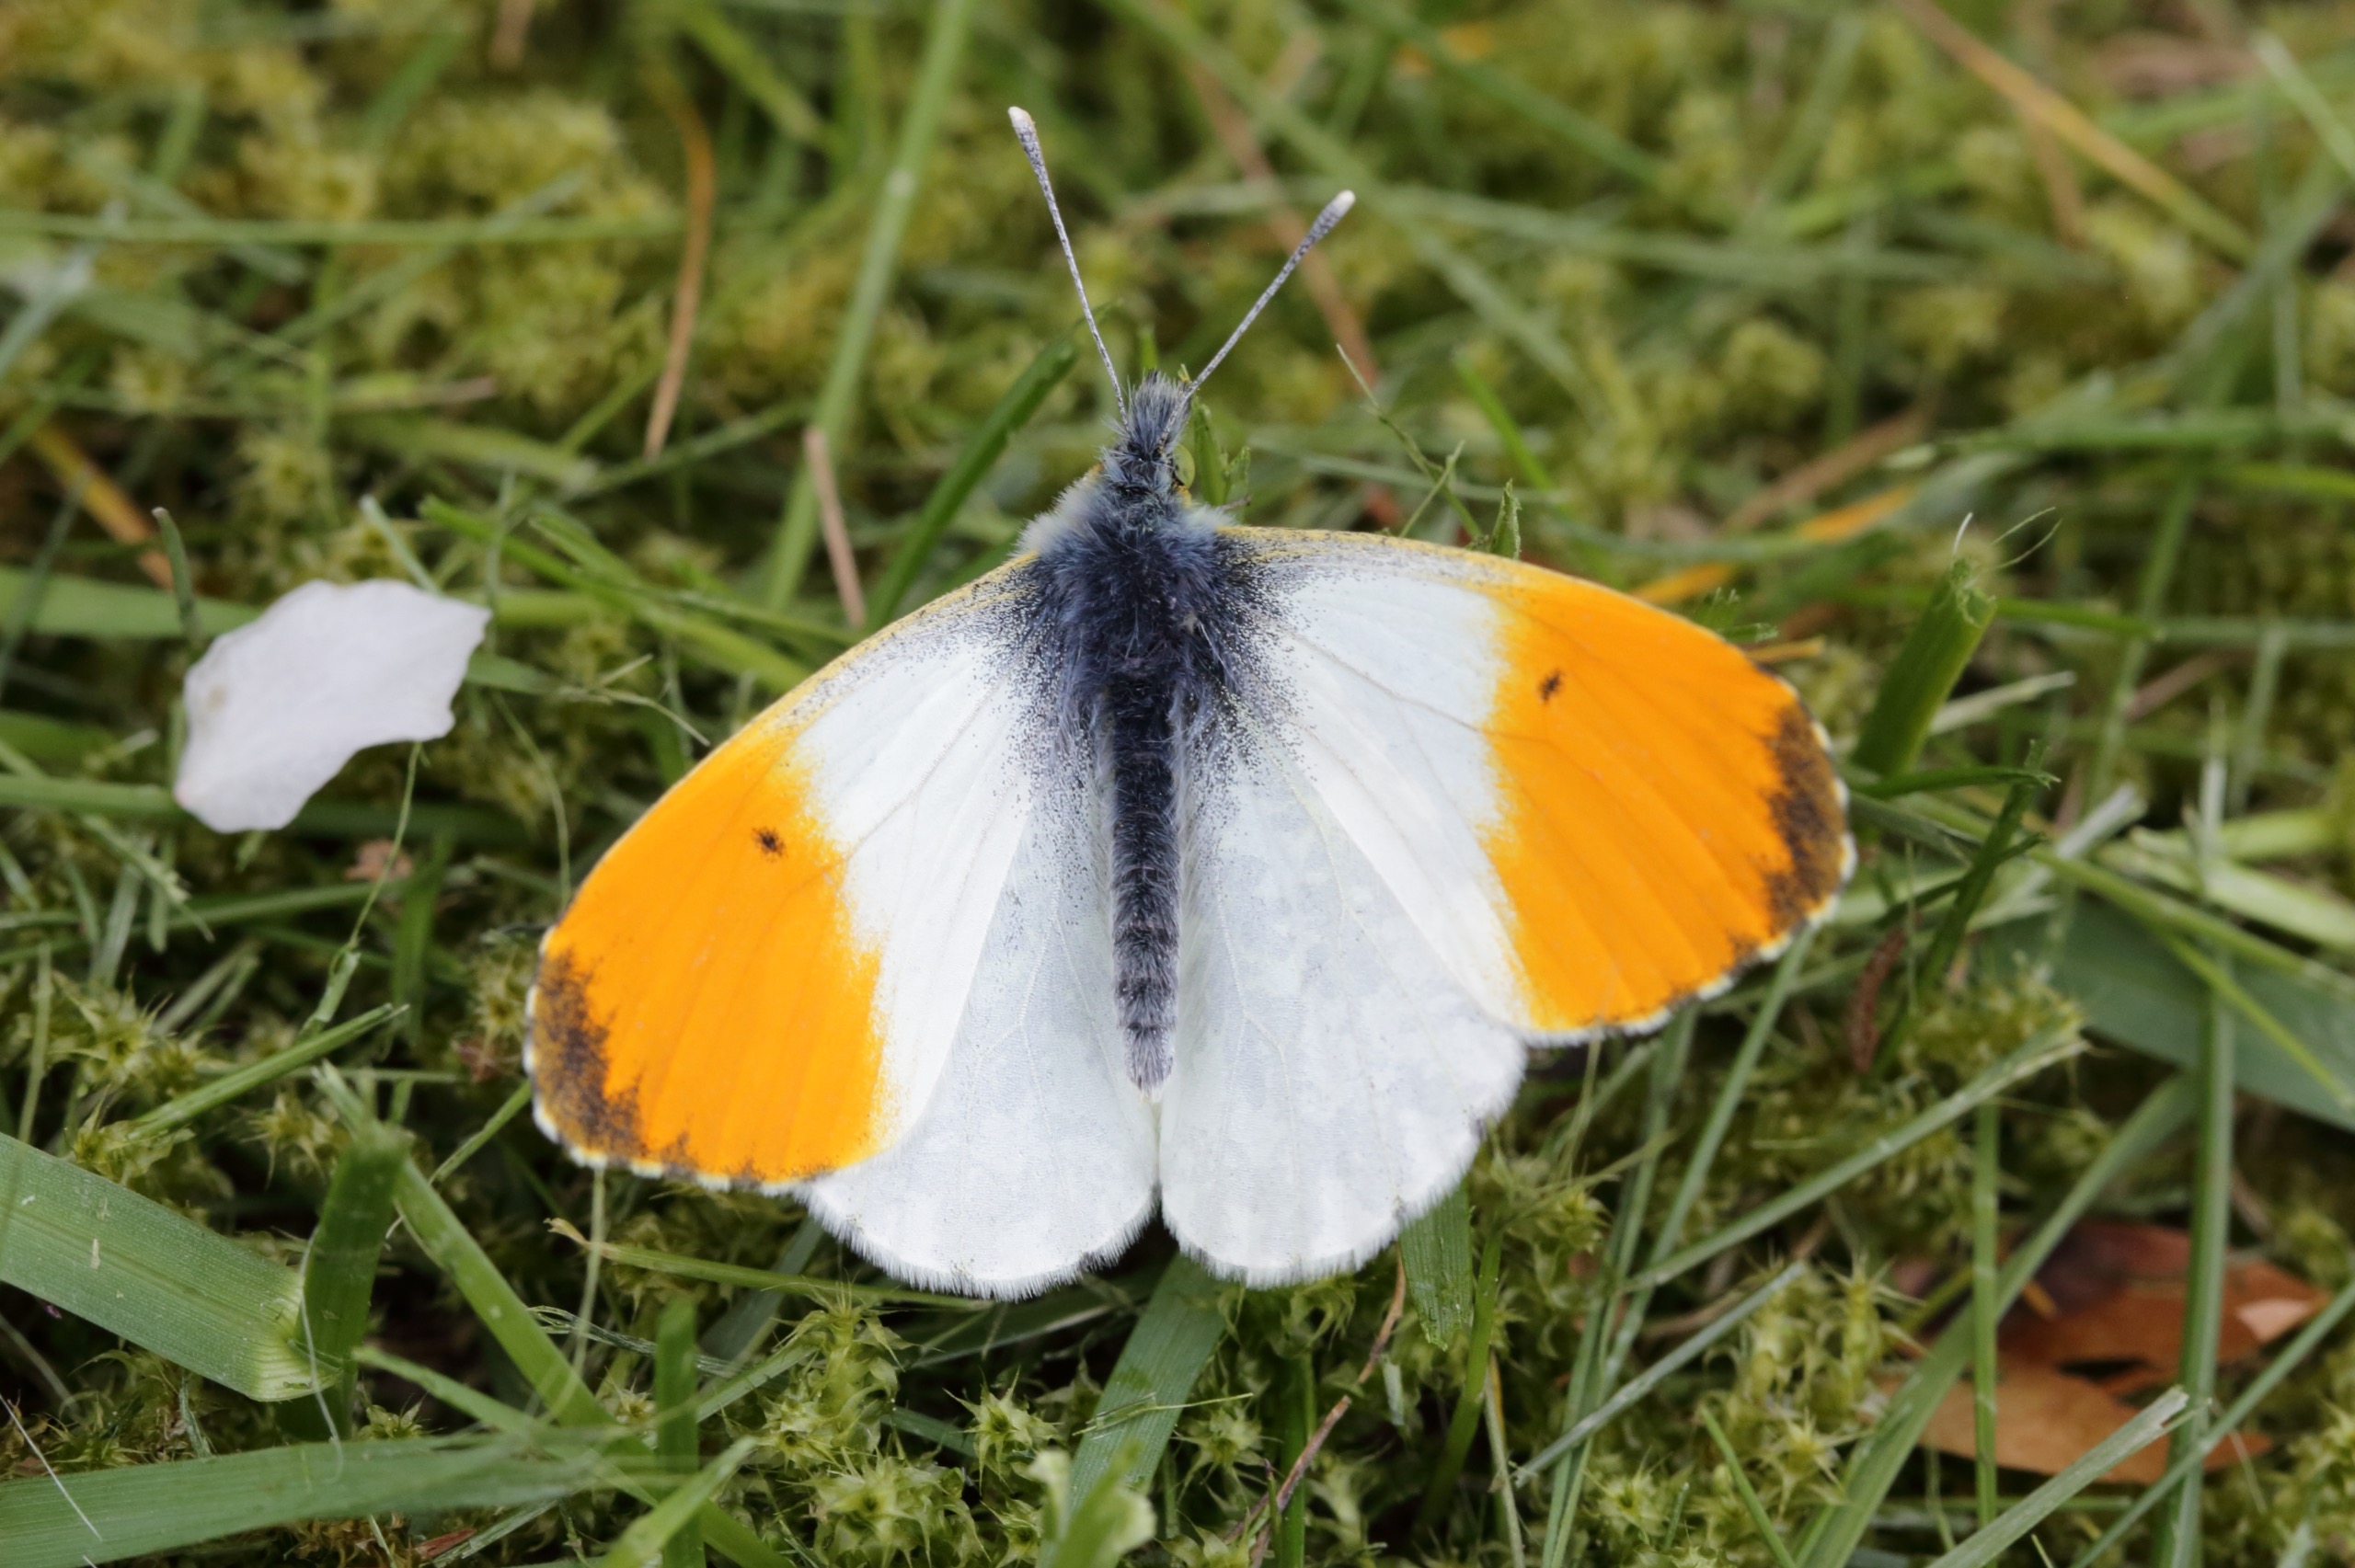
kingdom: Animalia
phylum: Arthropoda
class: Insecta
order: Lepidoptera
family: Pieridae
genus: Anthocharis
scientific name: Anthocharis cardamines
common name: Aurora
